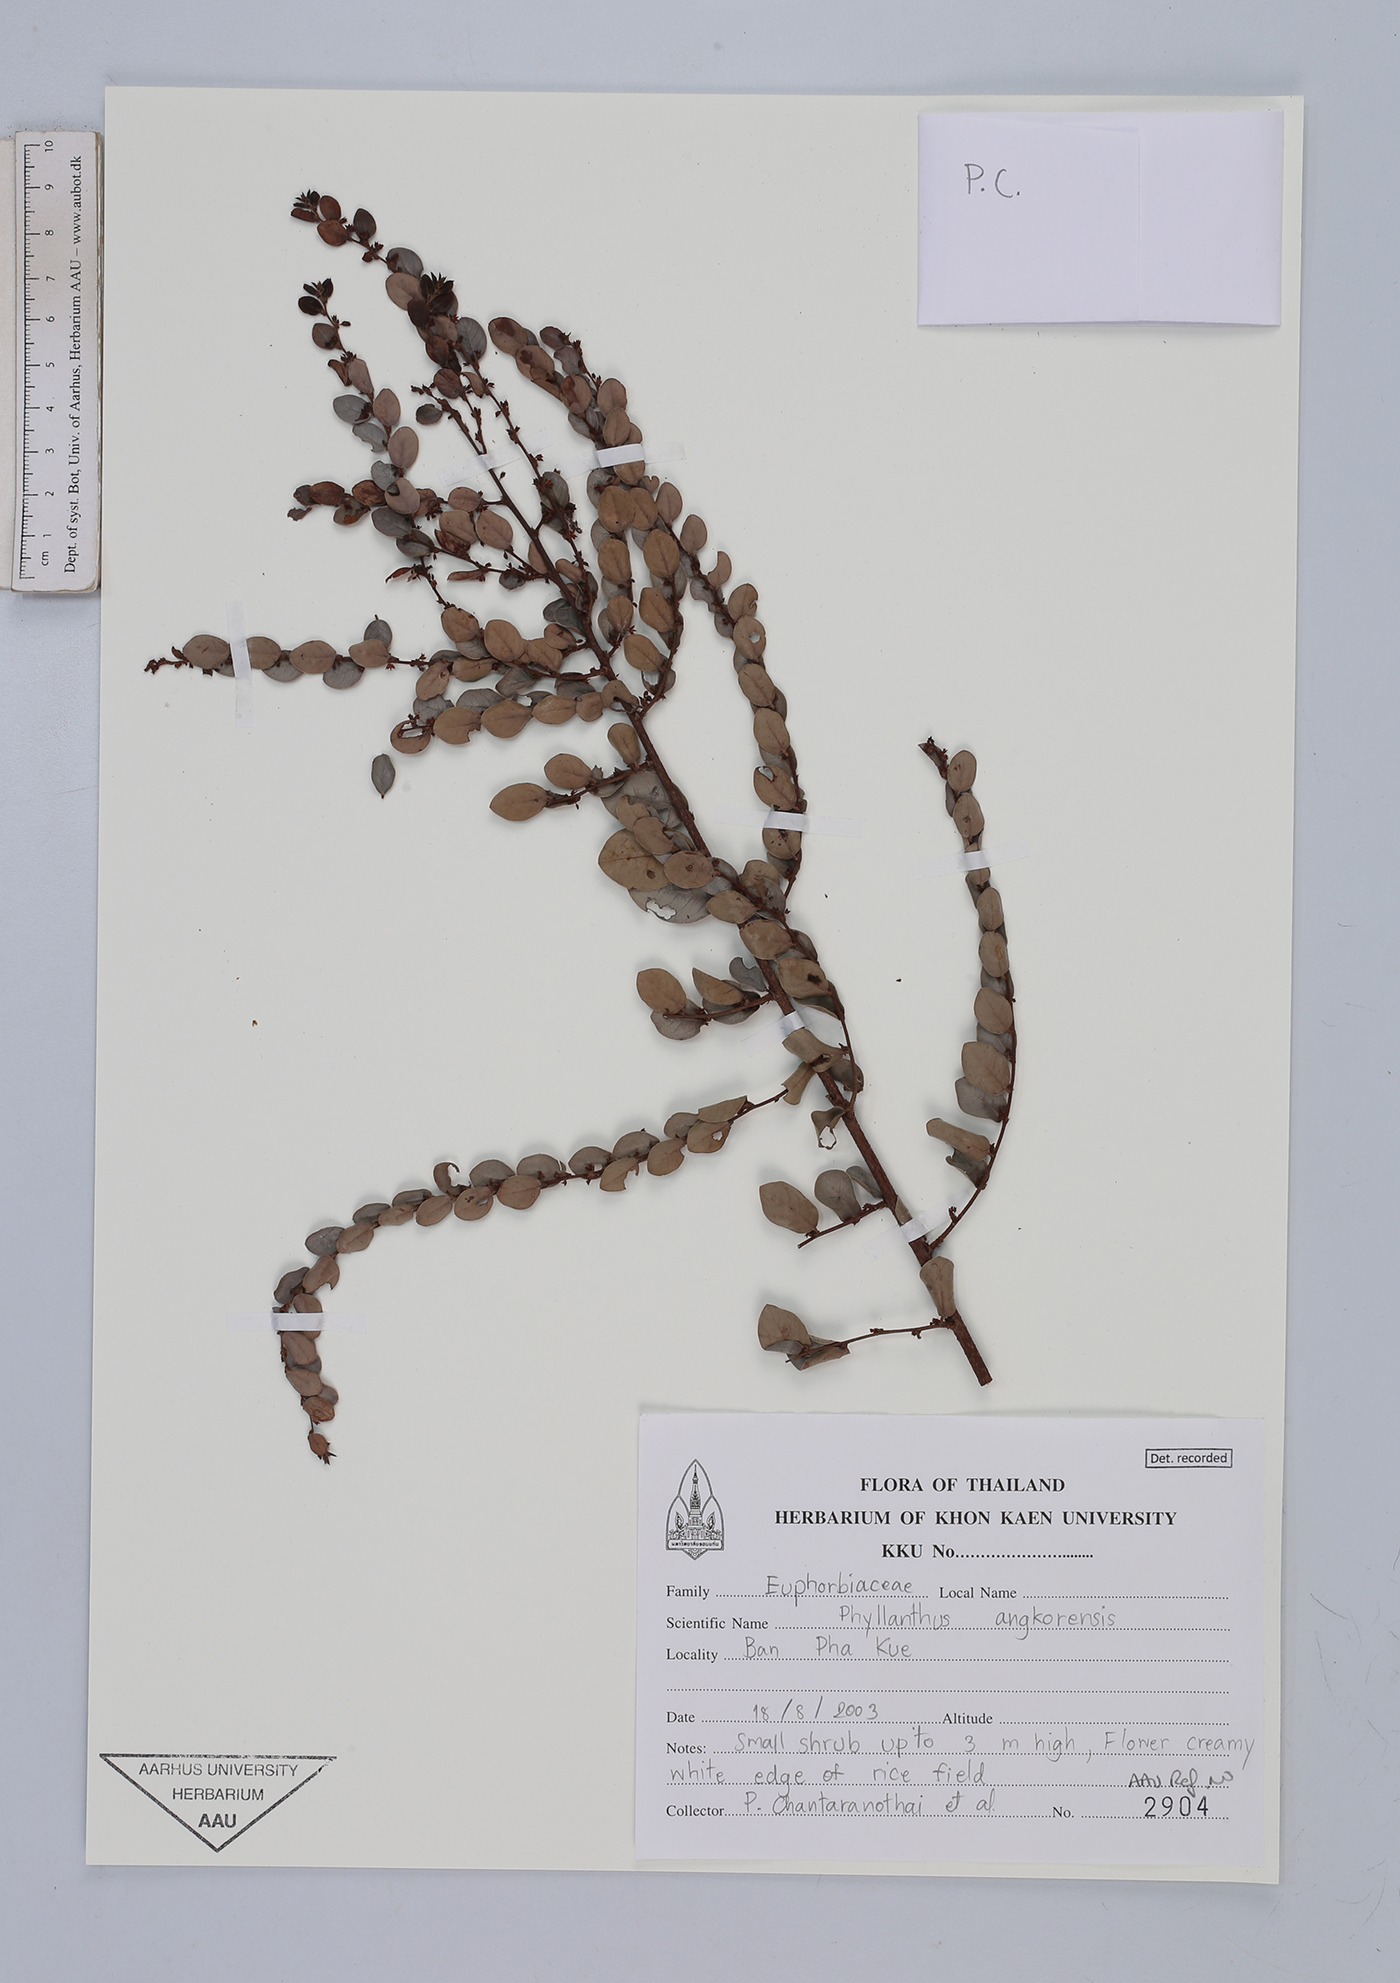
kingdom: Plantae
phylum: Tracheophyta
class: Magnoliopsida
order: Malpighiales
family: Phyllanthaceae
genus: Phyllanthus
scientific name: Phyllanthus angkorensis
